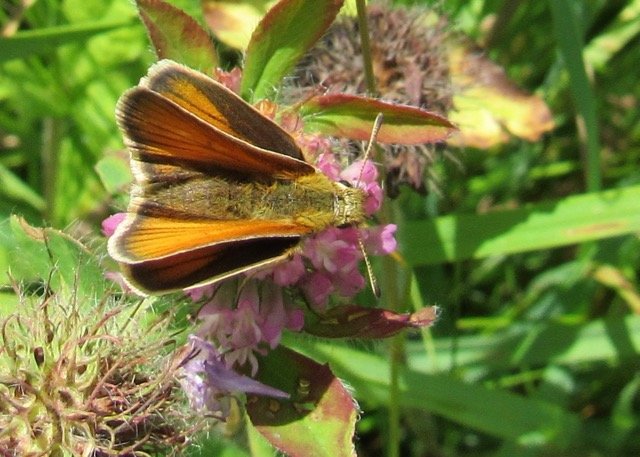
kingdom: Animalia
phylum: Arthropoda
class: Insecta
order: Lepidoptera
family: Hesperiidae
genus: Thymelicus
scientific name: Thymelicus lineola
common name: European Skipper
